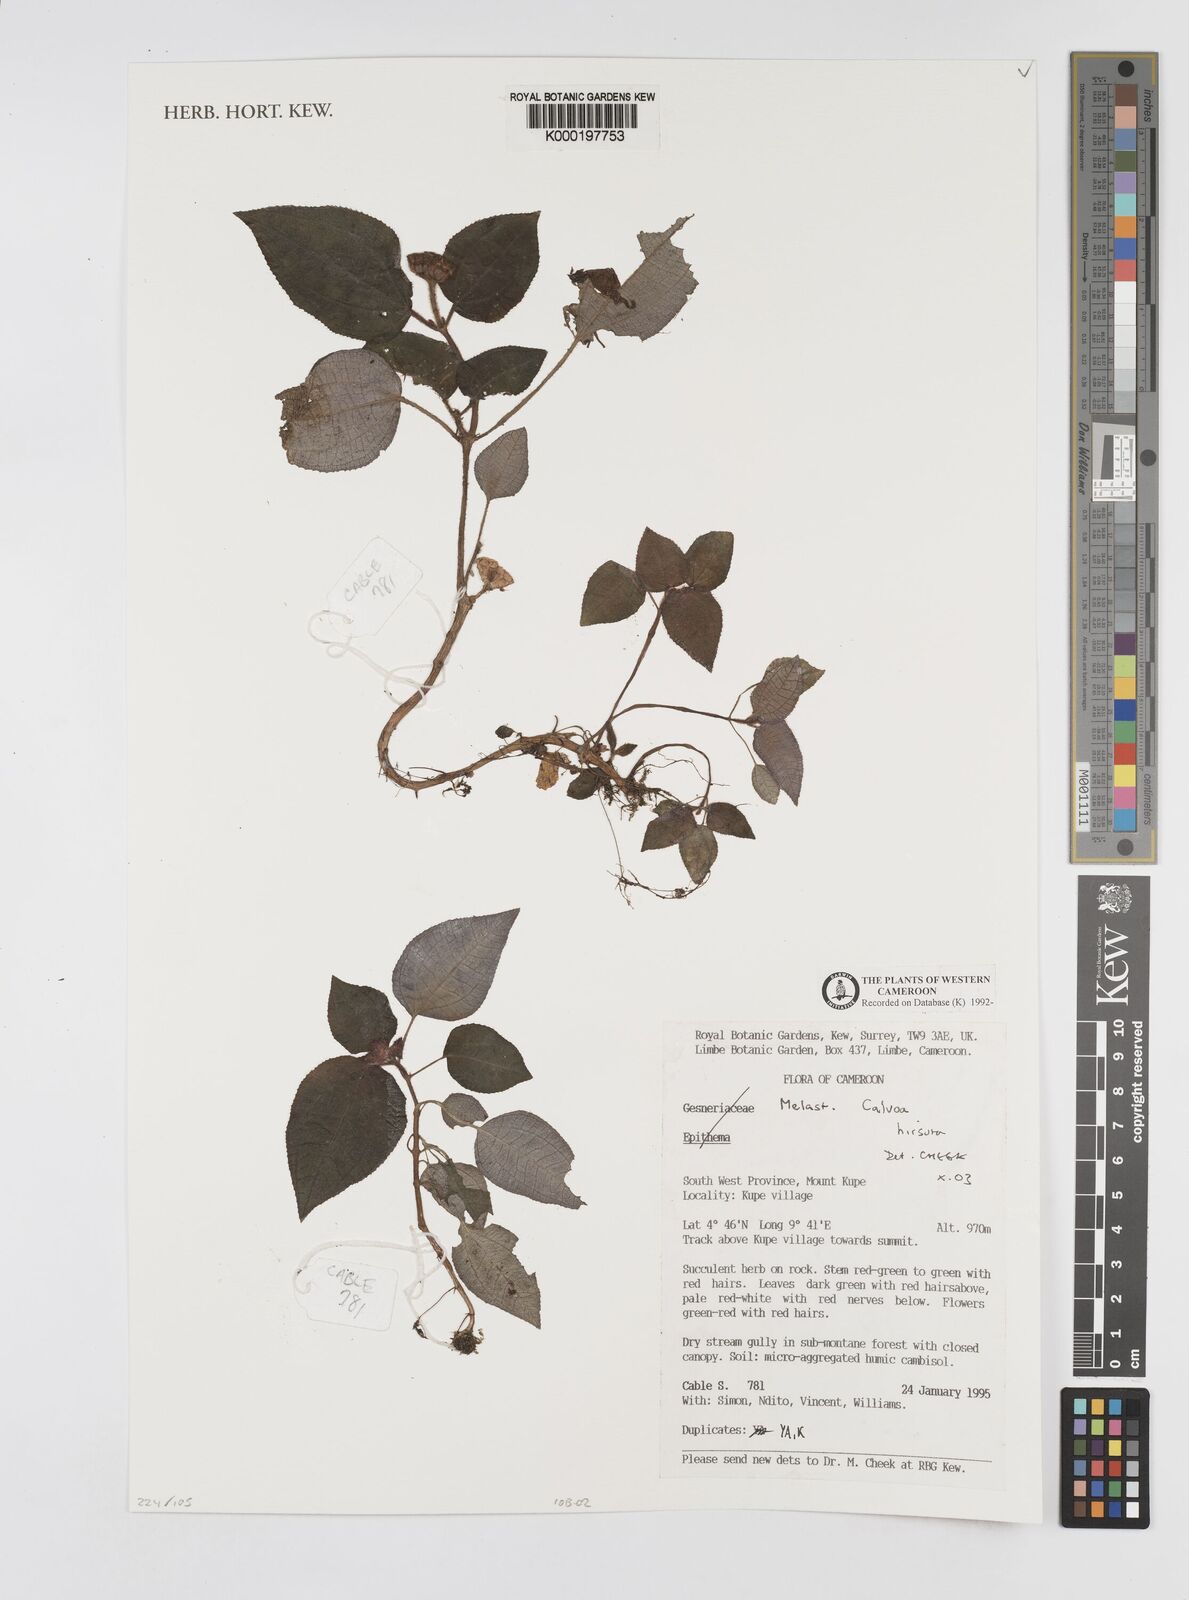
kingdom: Plantae
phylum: Tracheophyta
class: Magnoliopsida
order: Myrtales
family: Melastomataceae
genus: Calvoa
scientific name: Calvoa
